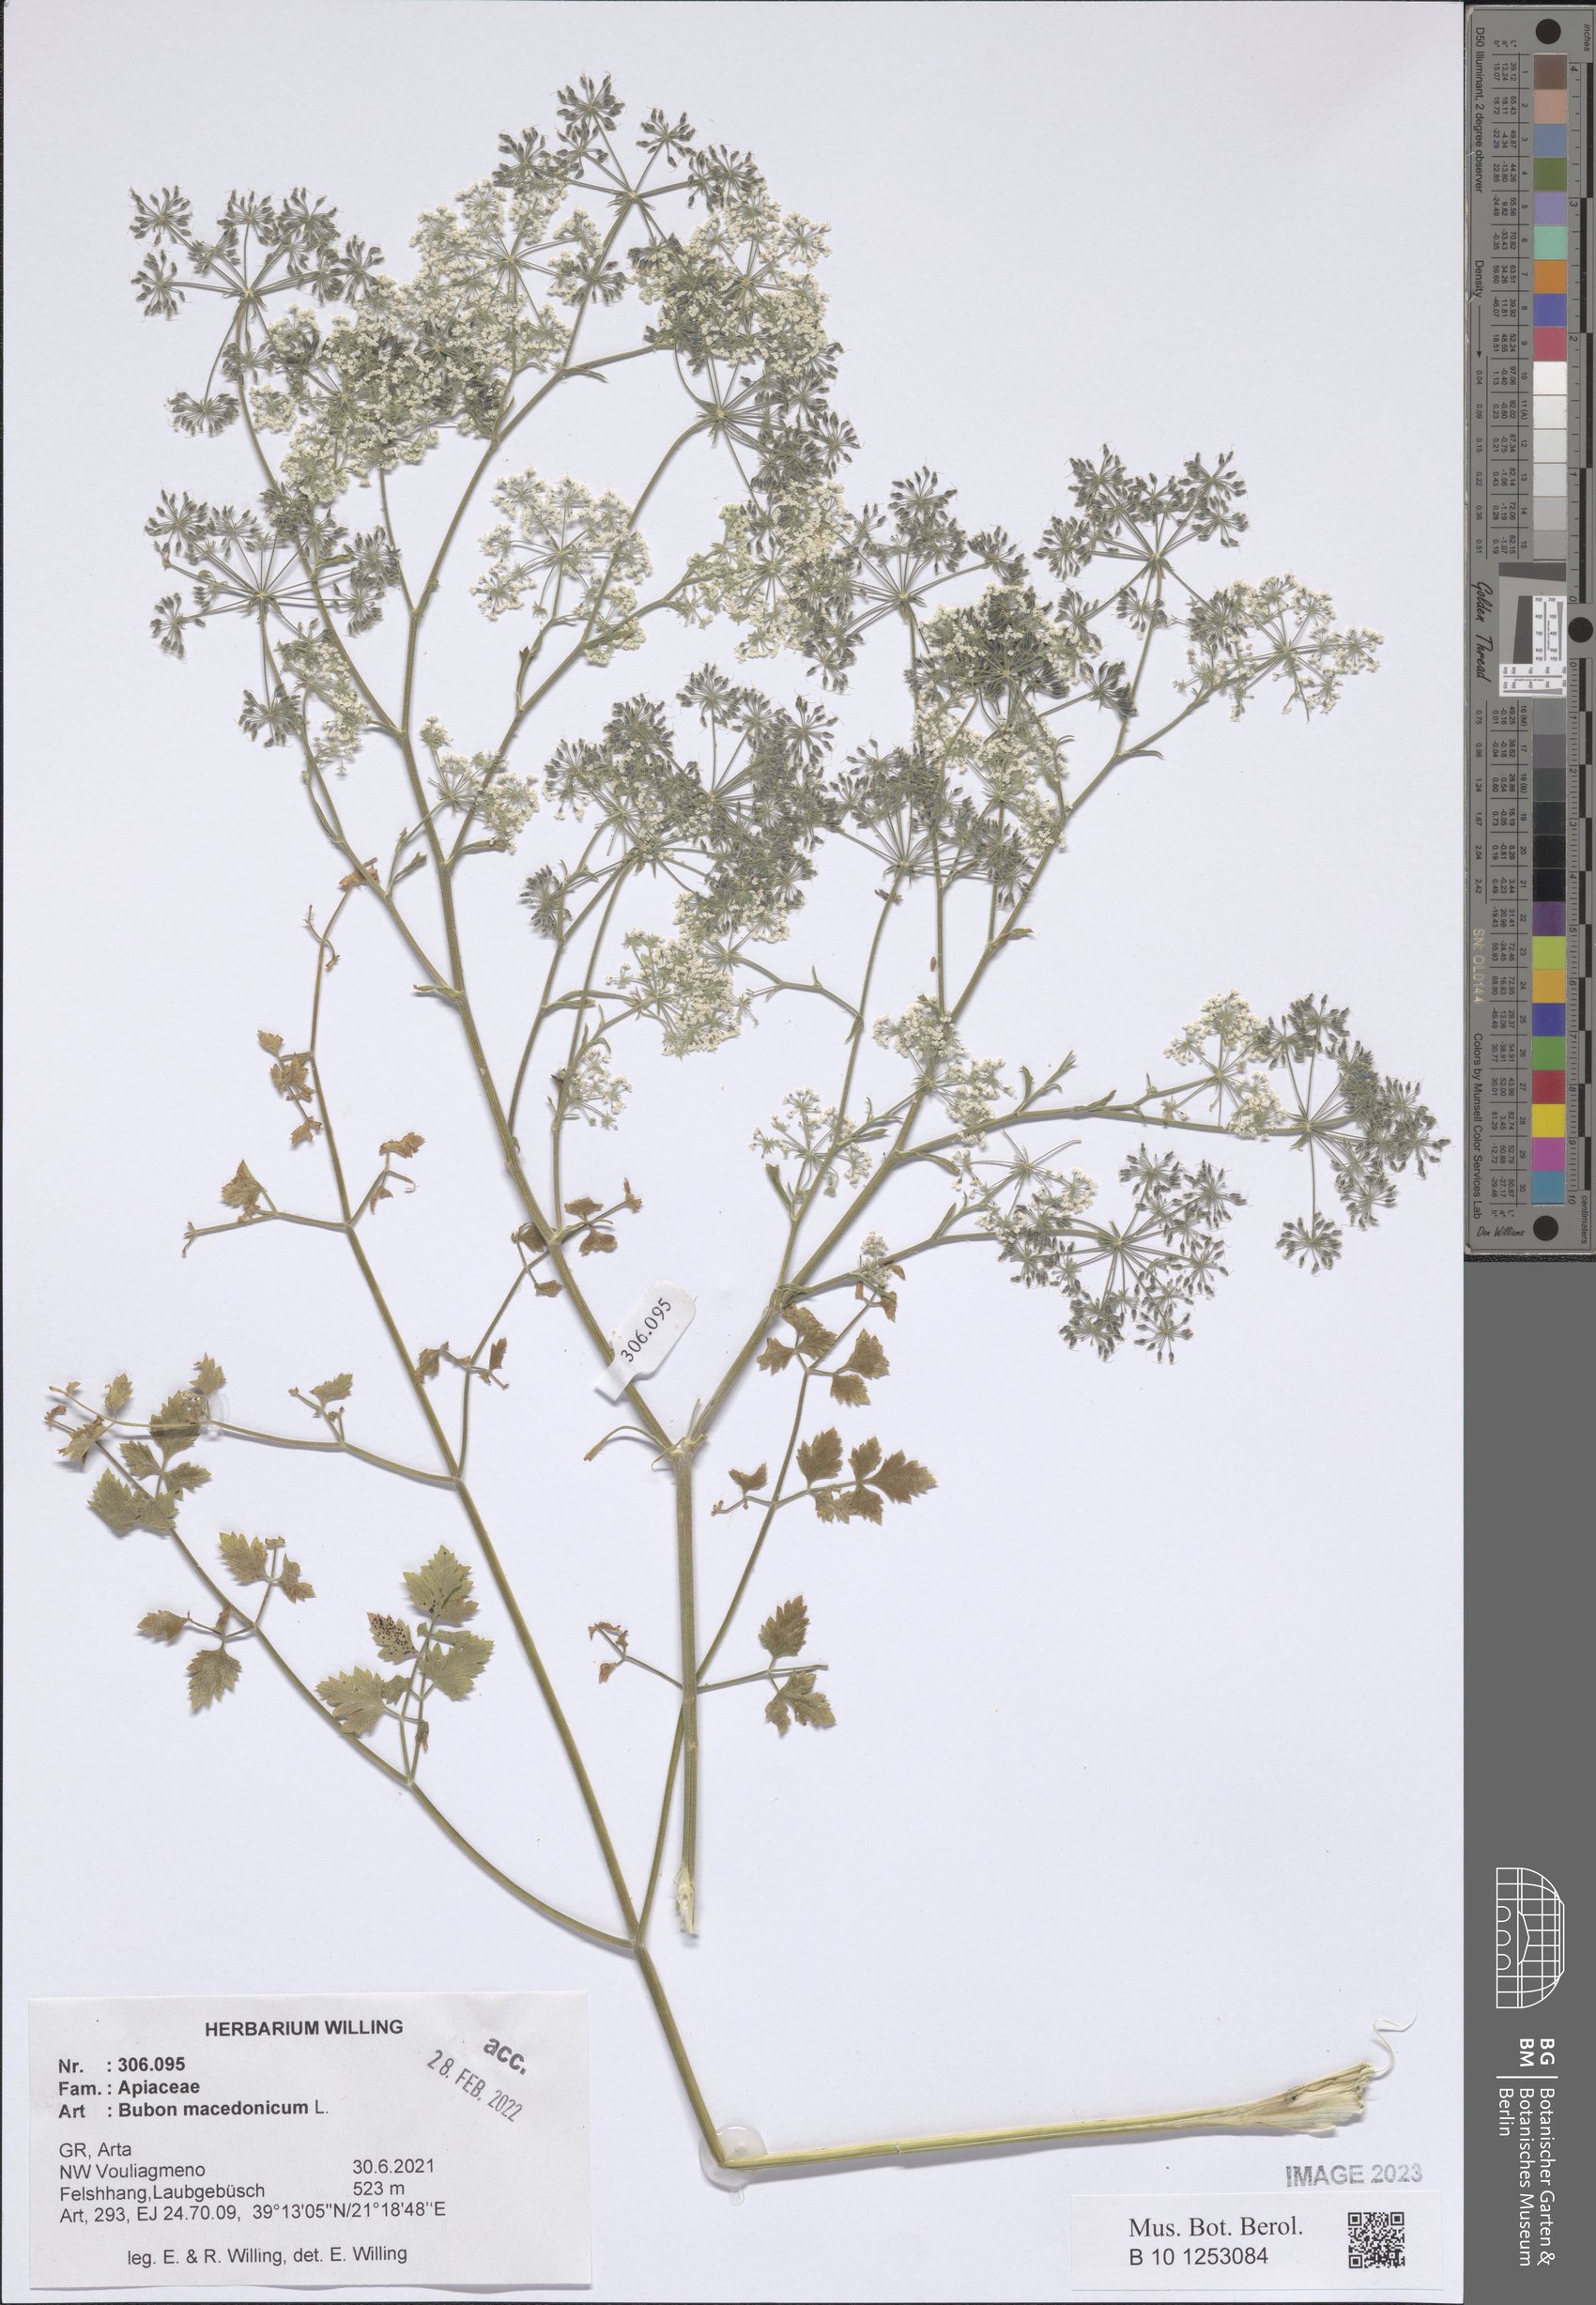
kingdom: Plantae
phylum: Tracheophyta
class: Magnoliopsida
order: Apiales
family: Apiaceae
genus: Bubon
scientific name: Bubon macedonicum
